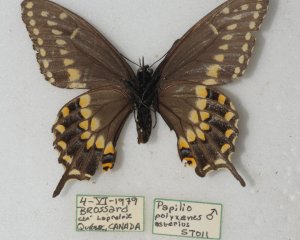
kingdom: Animalia
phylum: Arthropoda
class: Insecta
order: Lepidoptera
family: Papilionidae
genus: Papilio
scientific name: Papilio polyxenes
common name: Black Swallowtail
